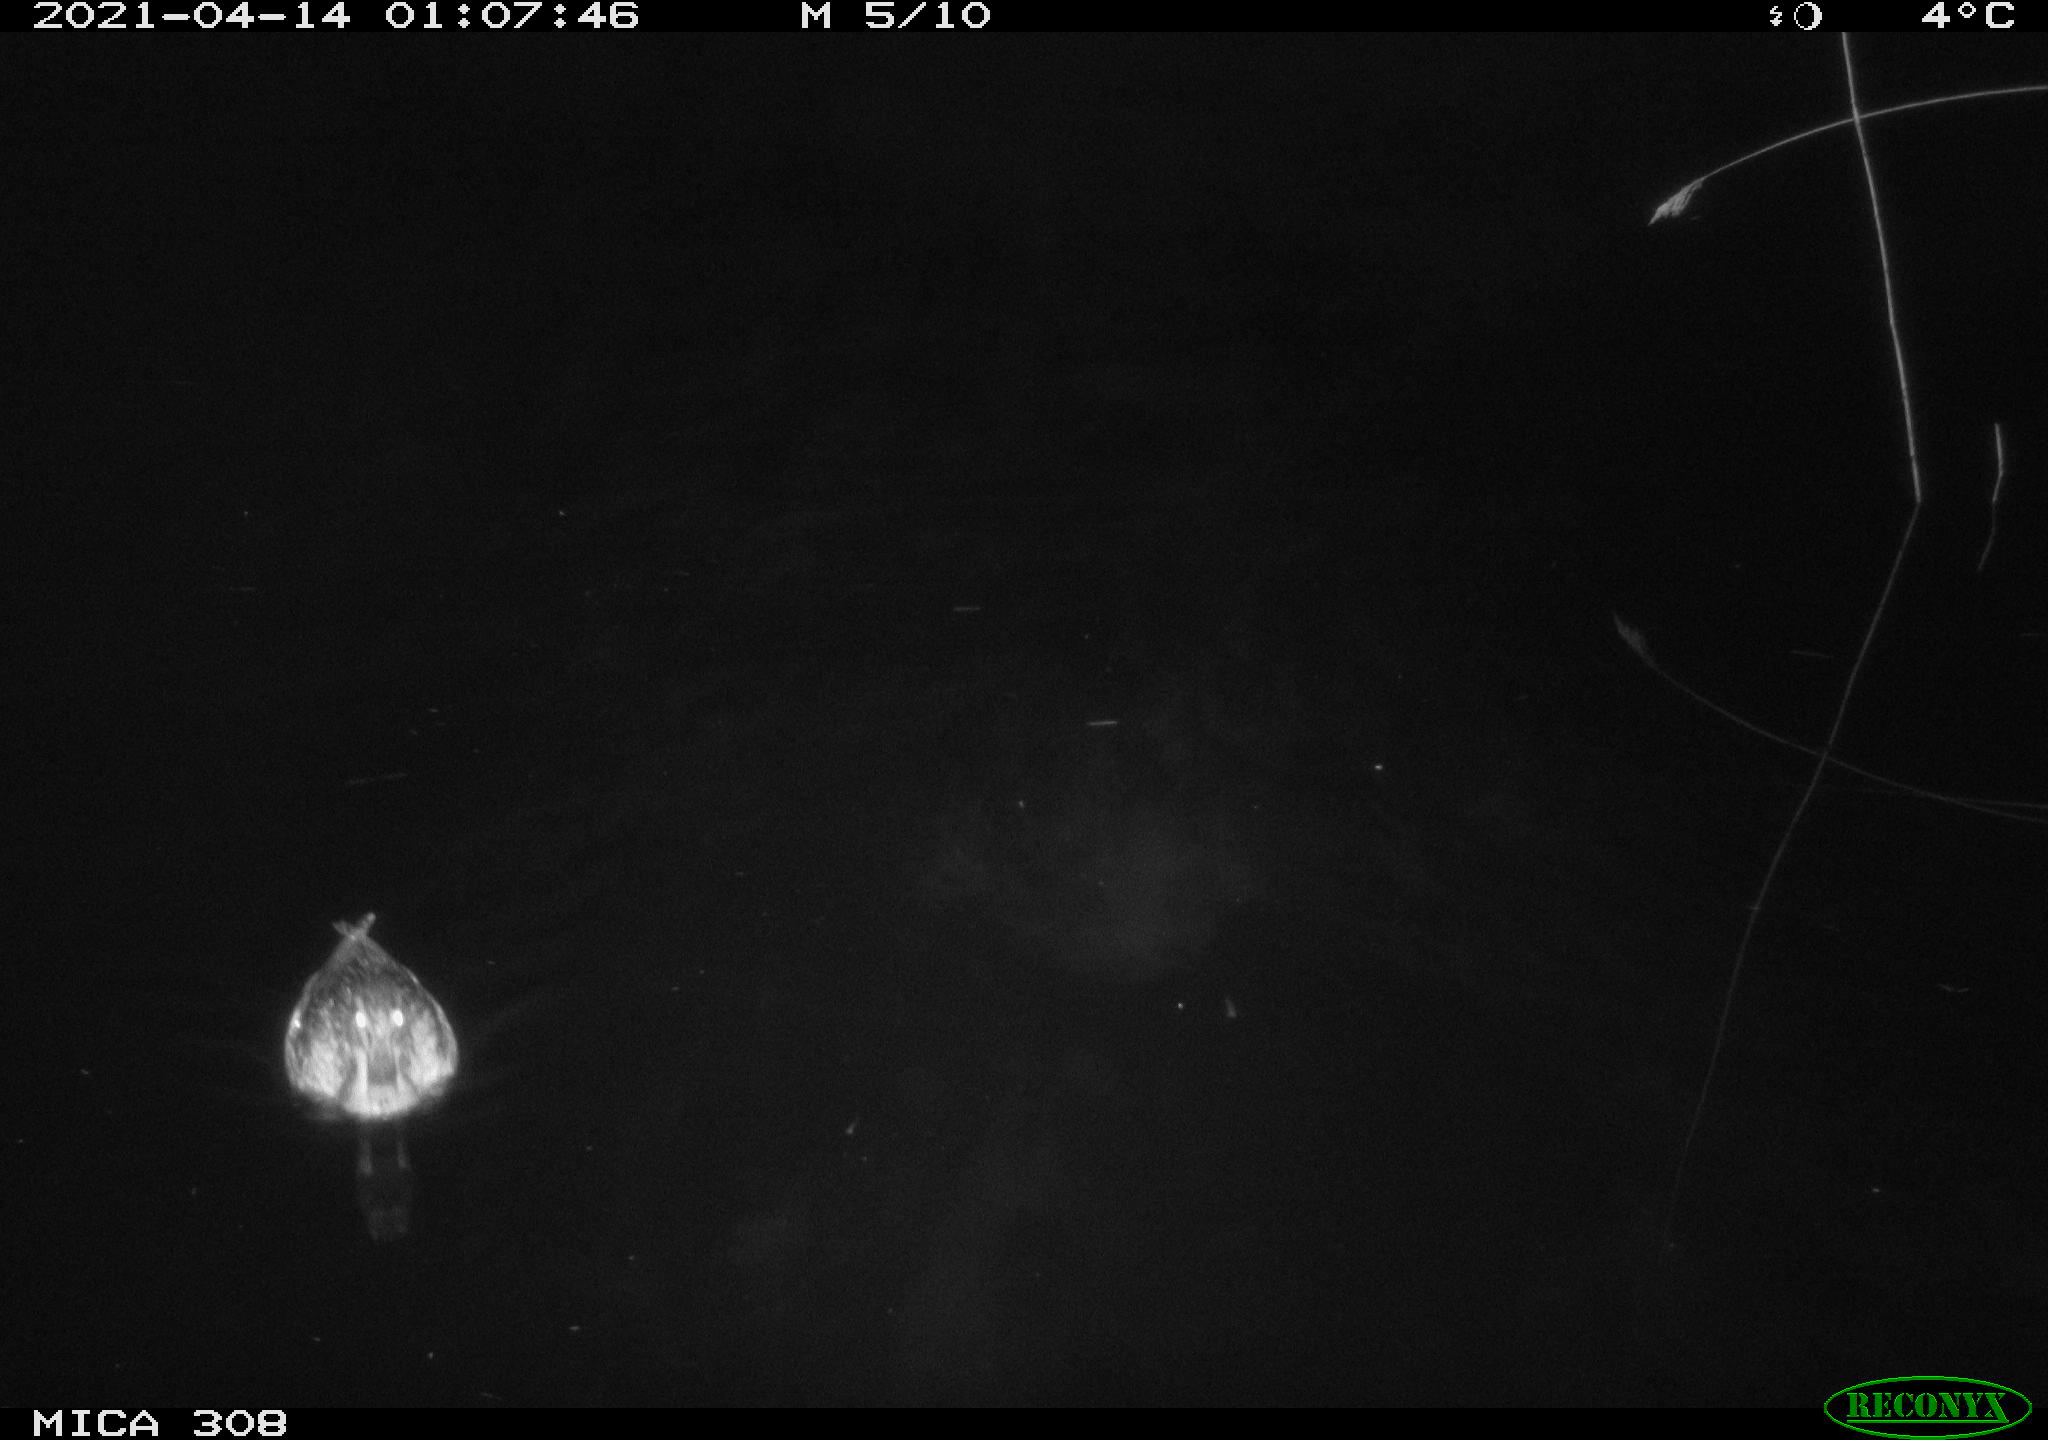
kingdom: Animalia
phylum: Chordata
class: Aves
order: Anseriformes
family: Anatidae
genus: Anas
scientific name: Anas platyrhynchos
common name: Mallard
